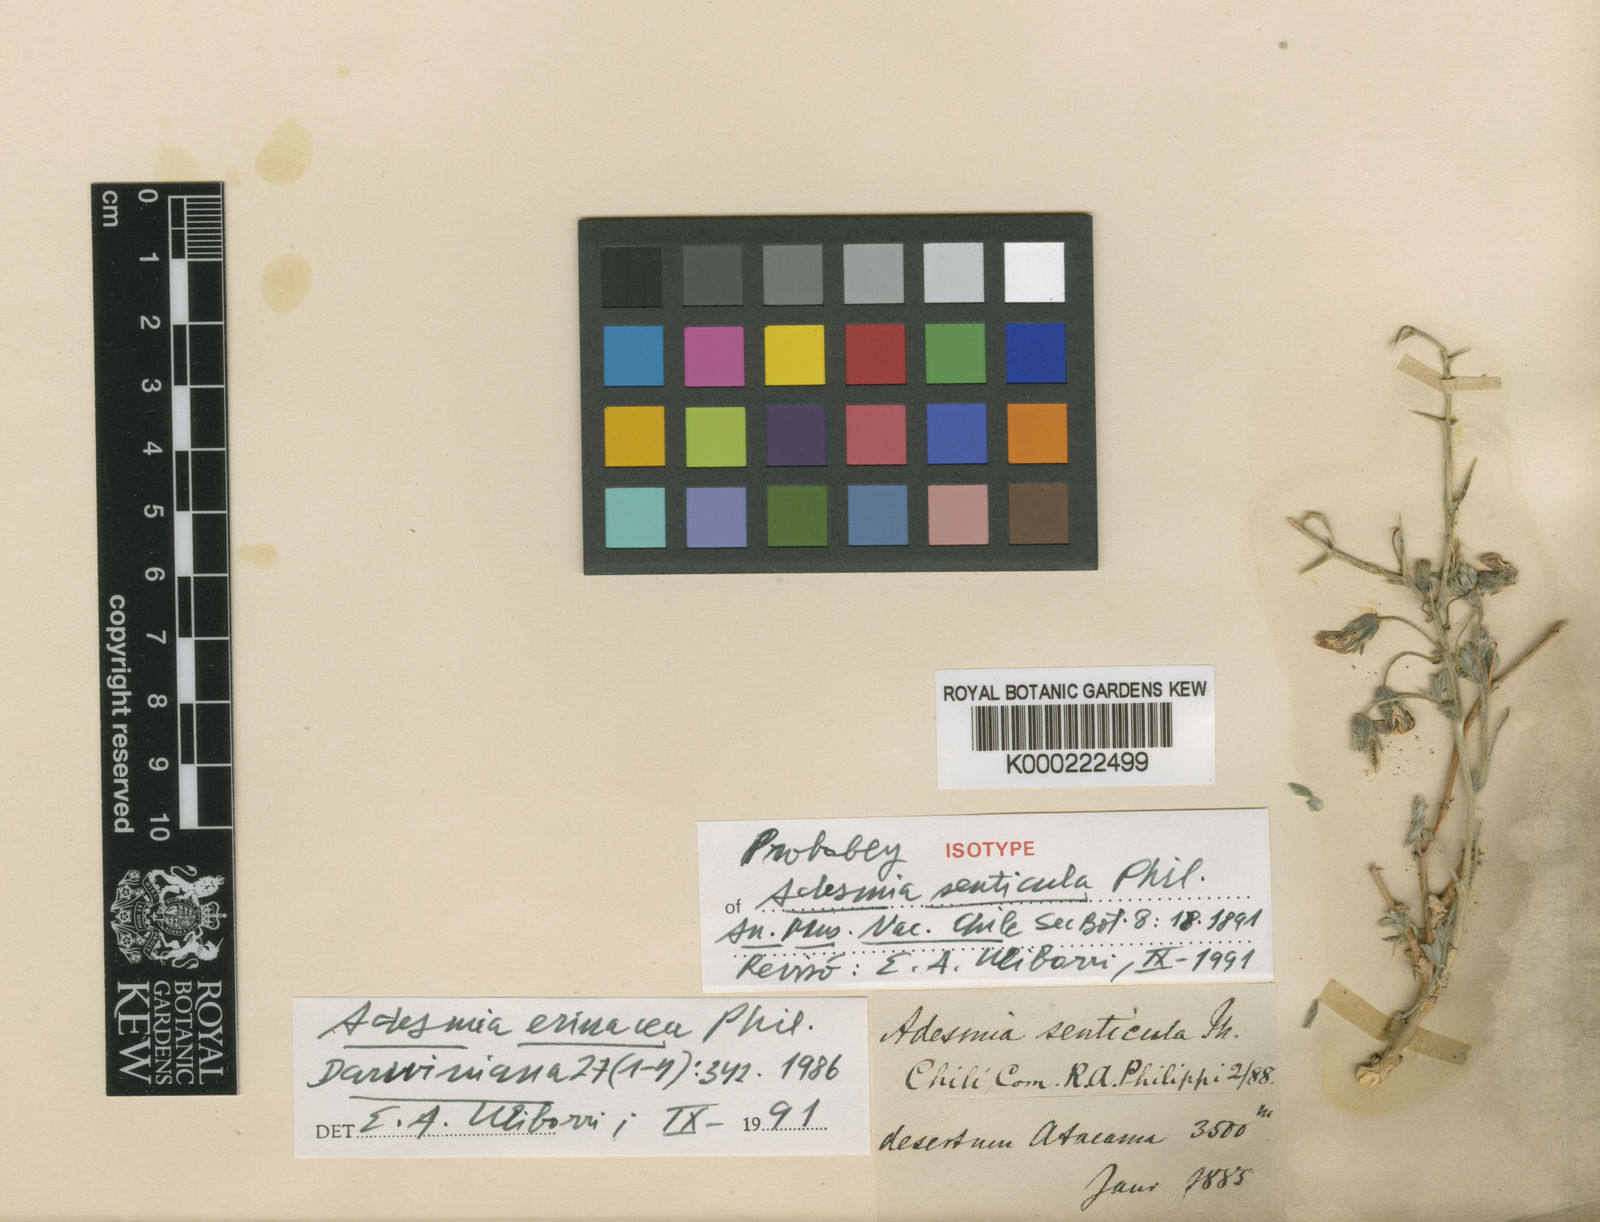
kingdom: Plantae
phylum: Tracheophyta
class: Magnoliopsida
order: Fabales
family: Fabaceae
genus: Adesmia
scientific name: Adesmia erinacea
